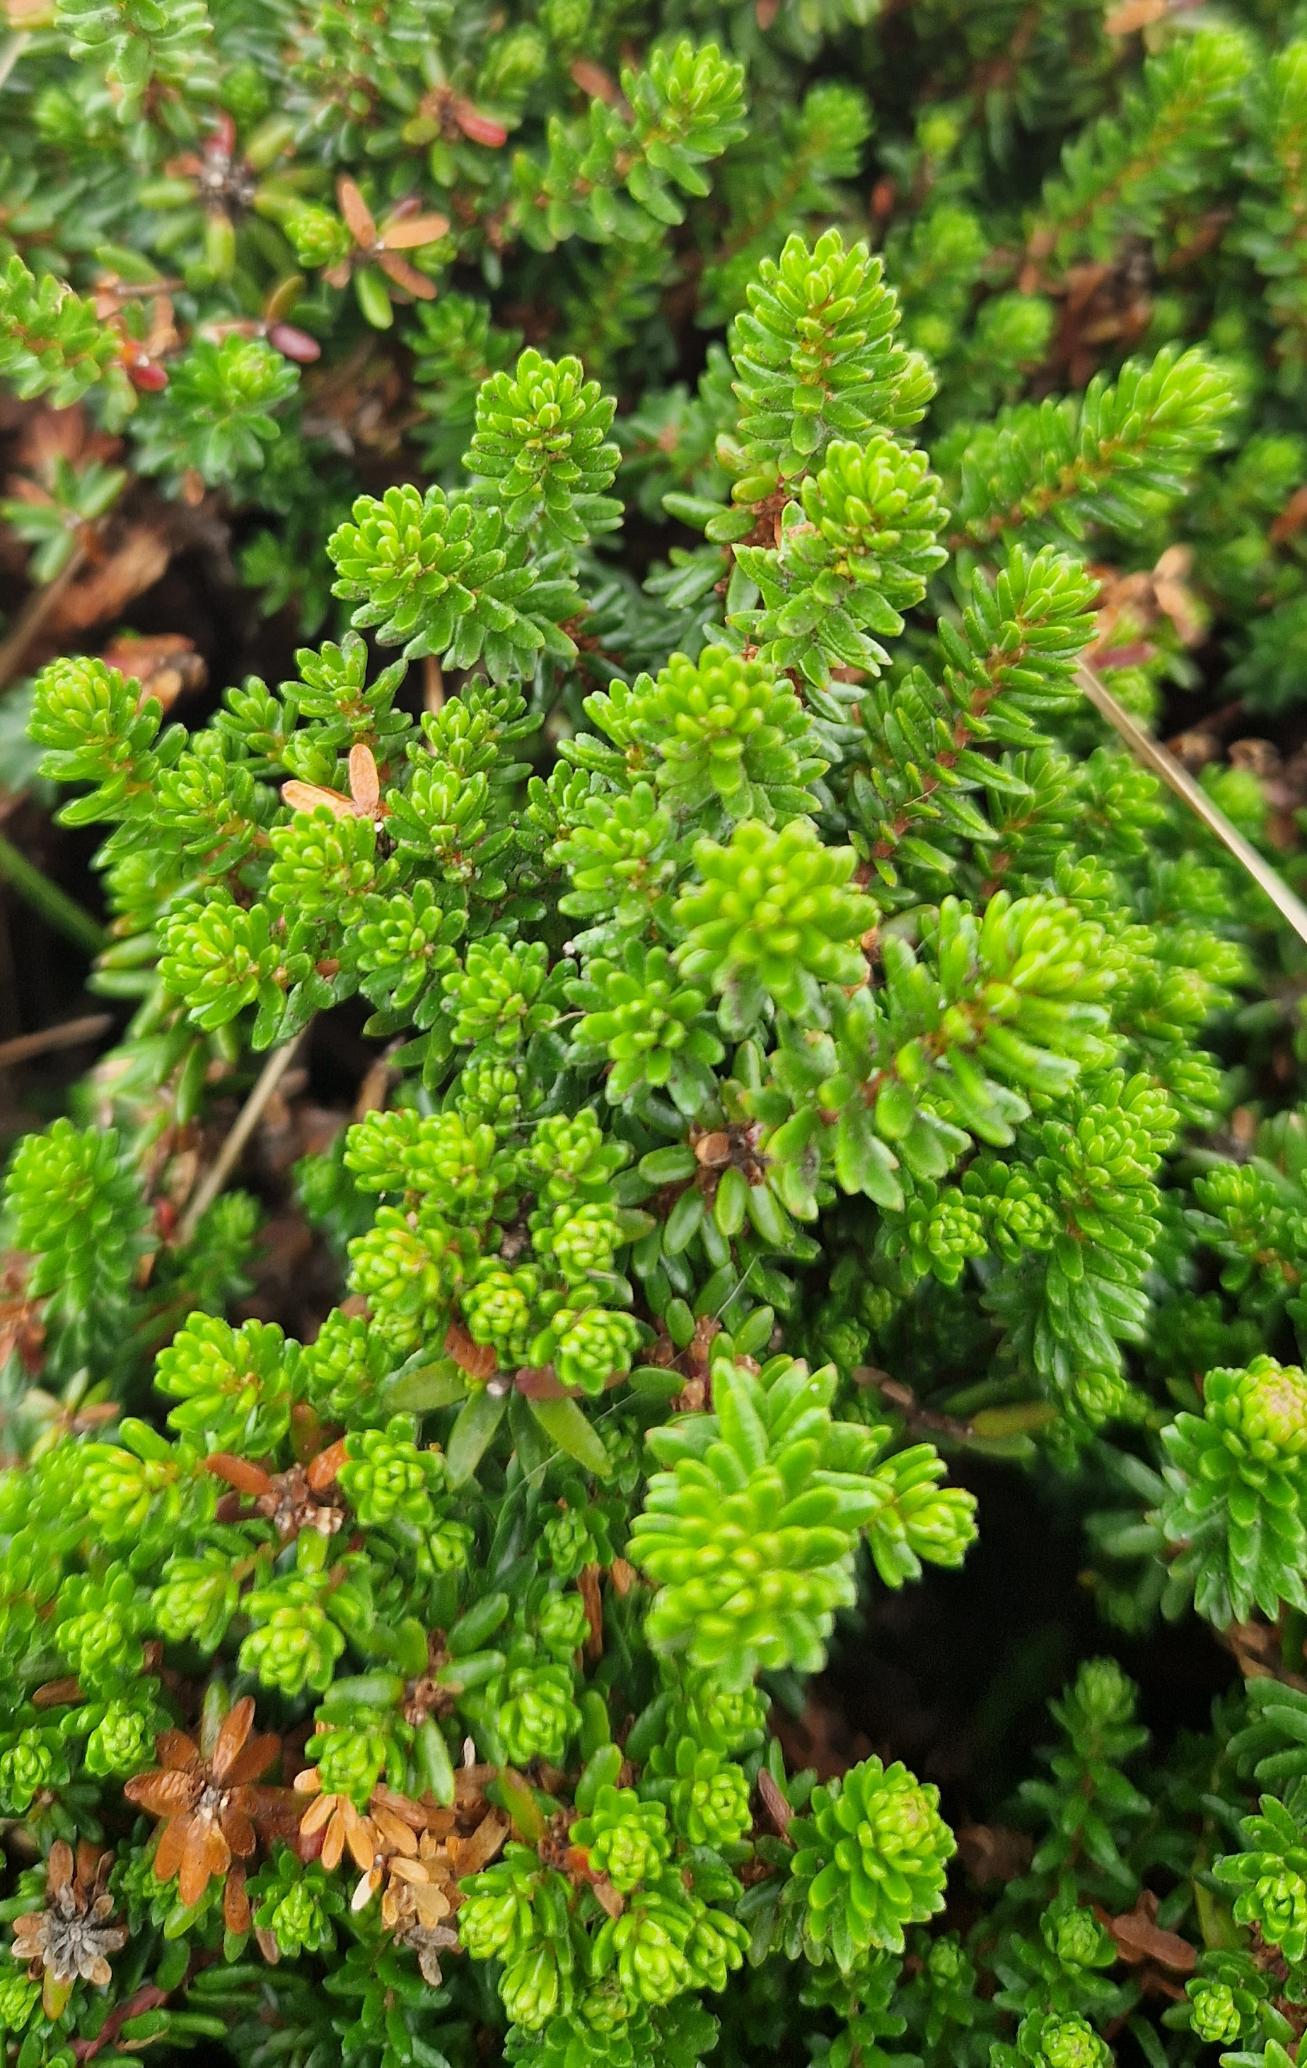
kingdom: Plantae
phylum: Tracheophyta
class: Magnoliopsida
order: Ericales
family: Ericaceae
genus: Empetrum
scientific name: Empetrum nigrum
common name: Revling
